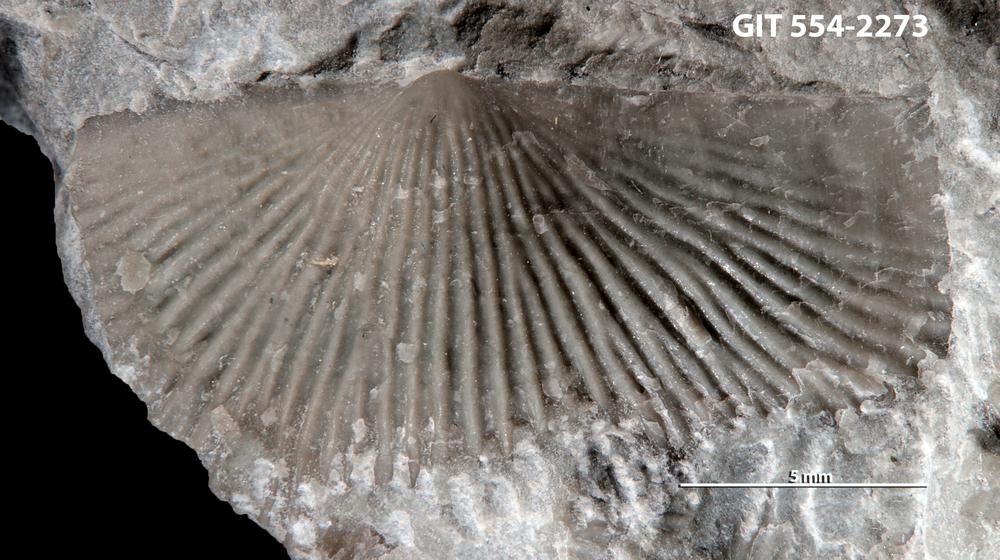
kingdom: Animalia
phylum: Brachiopoda
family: Strophochonetidae
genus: Protochonetes
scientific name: Protochonetes piltenensis
